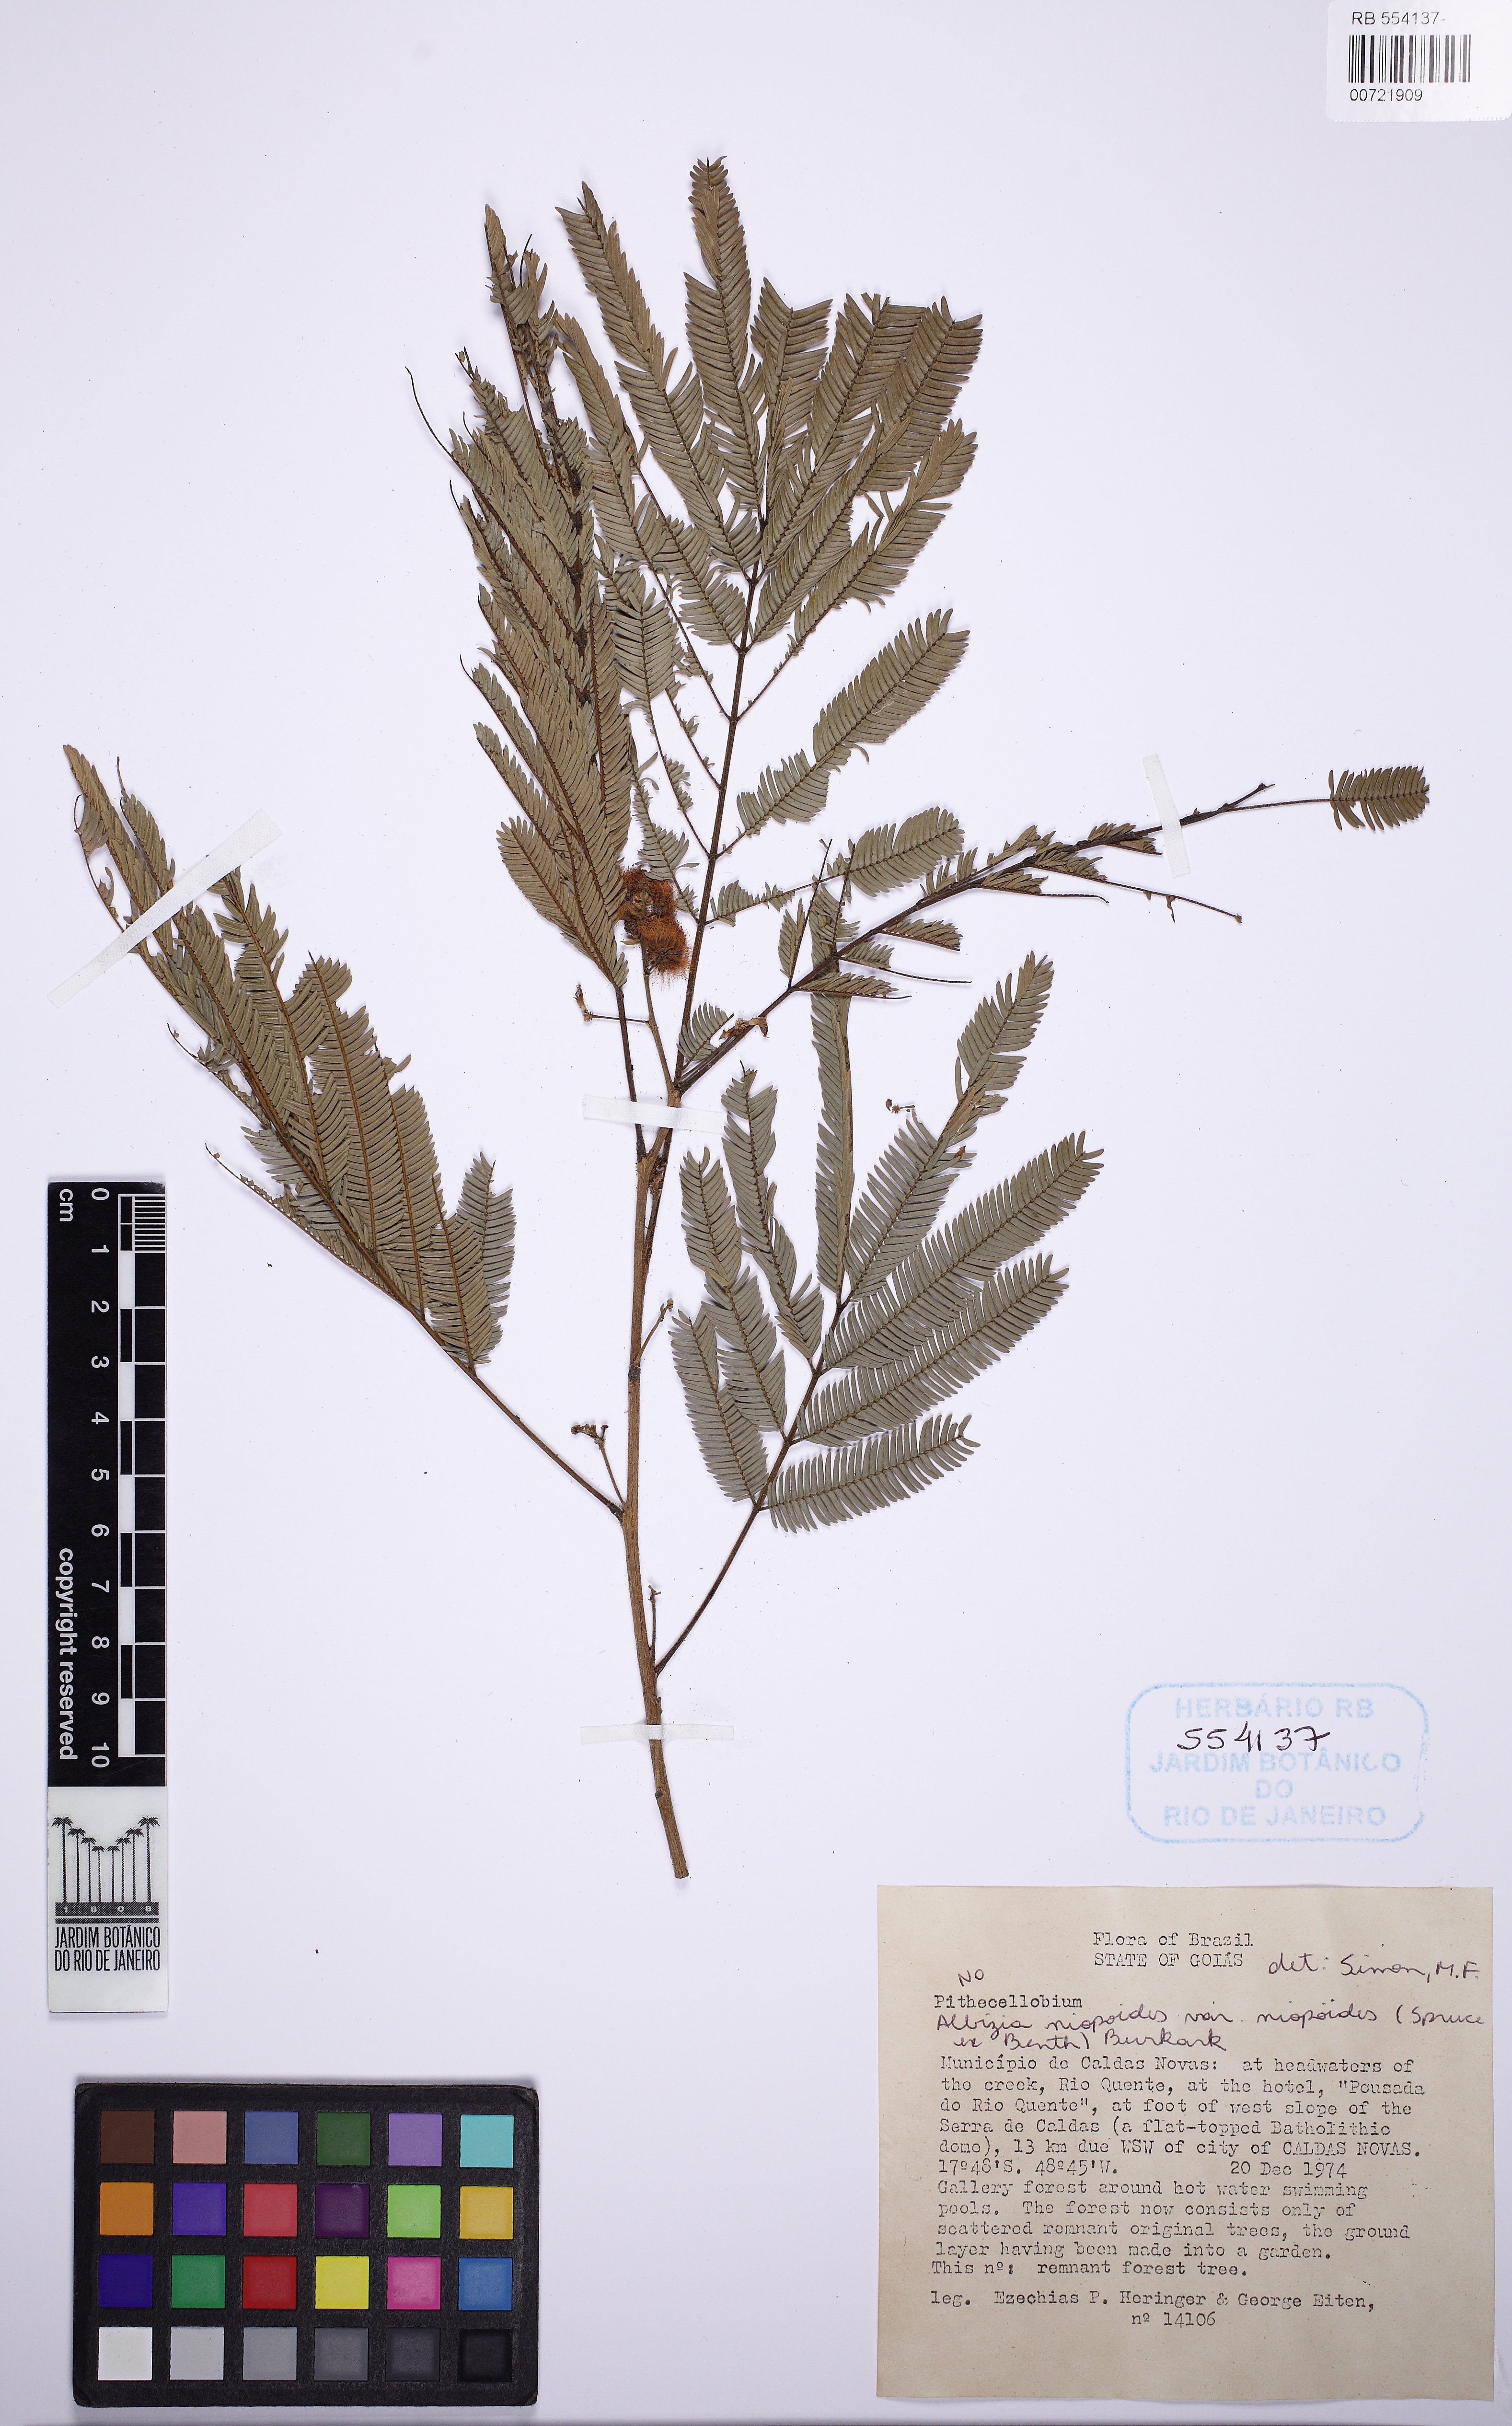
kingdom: Plantae
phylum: Tracheophyta
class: Magnoliopsida
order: Fabales
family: Fabaceae
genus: Albizia
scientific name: Albizia niopoides
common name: Silk tree
